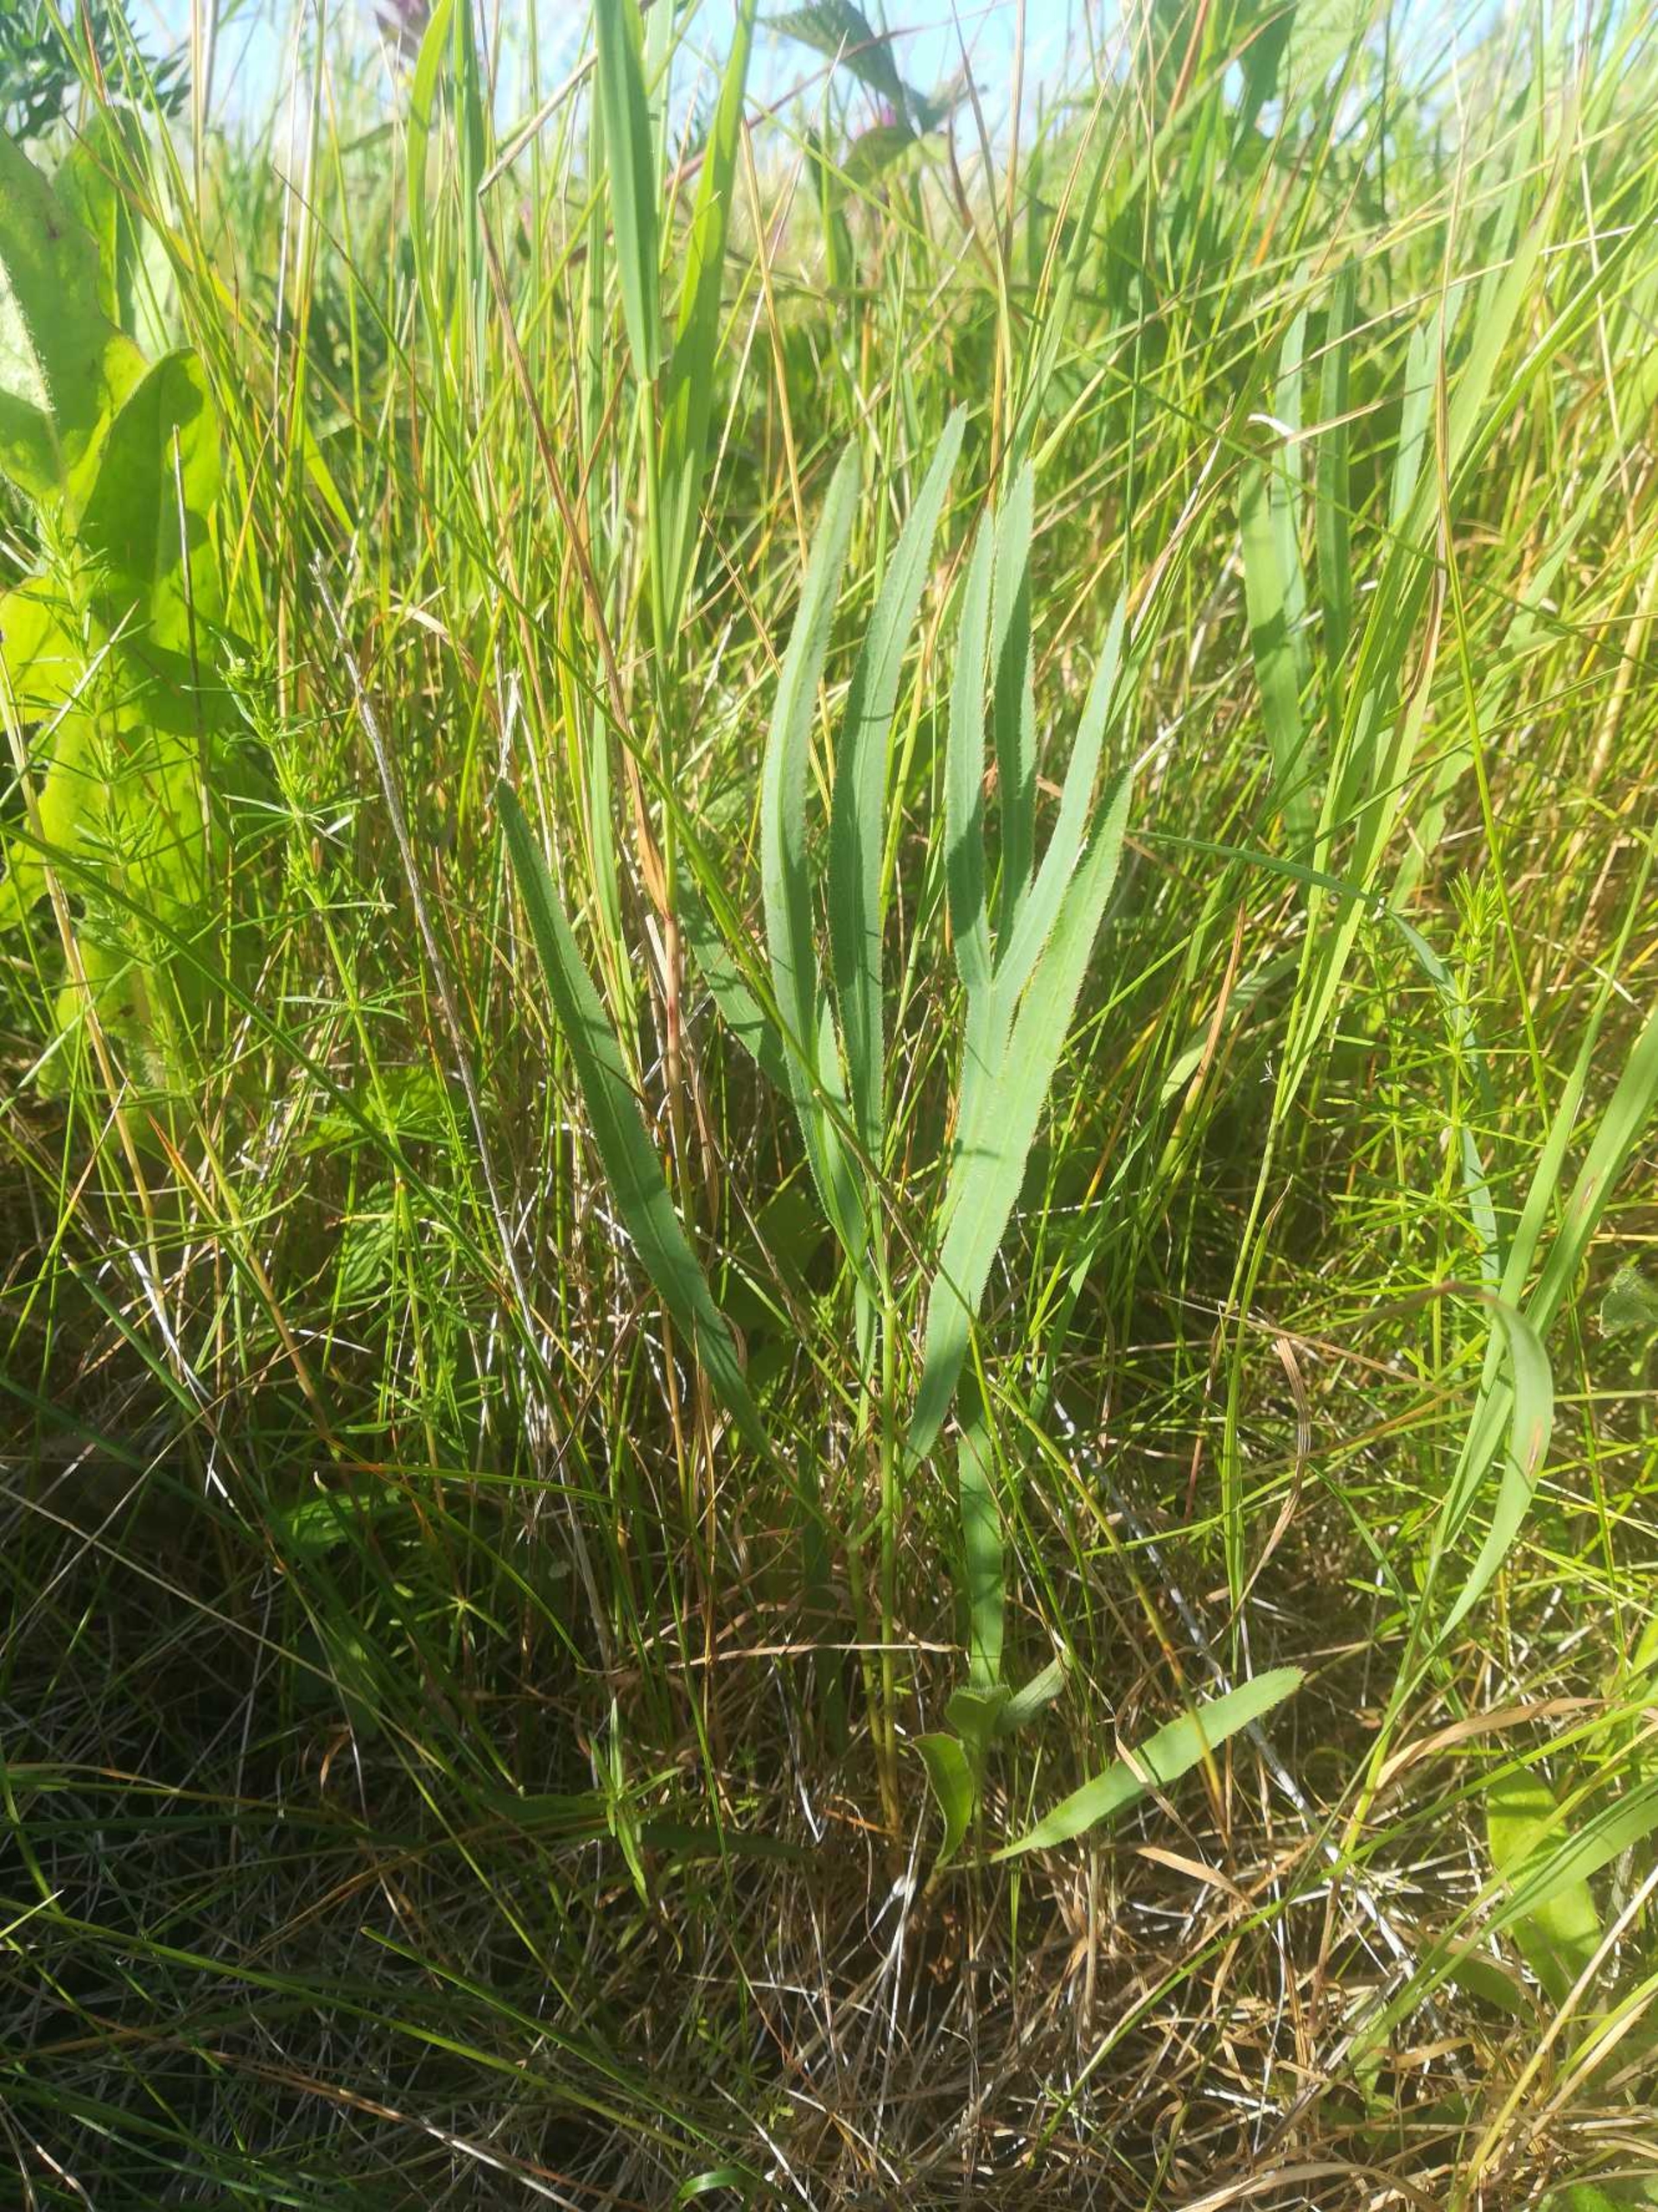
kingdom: Plantae
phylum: Tracheophyta
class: Magnoliopsida
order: Apiales
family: Apiaceae
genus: Falcaria
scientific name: Falcaria vulgaris
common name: Seglblad
